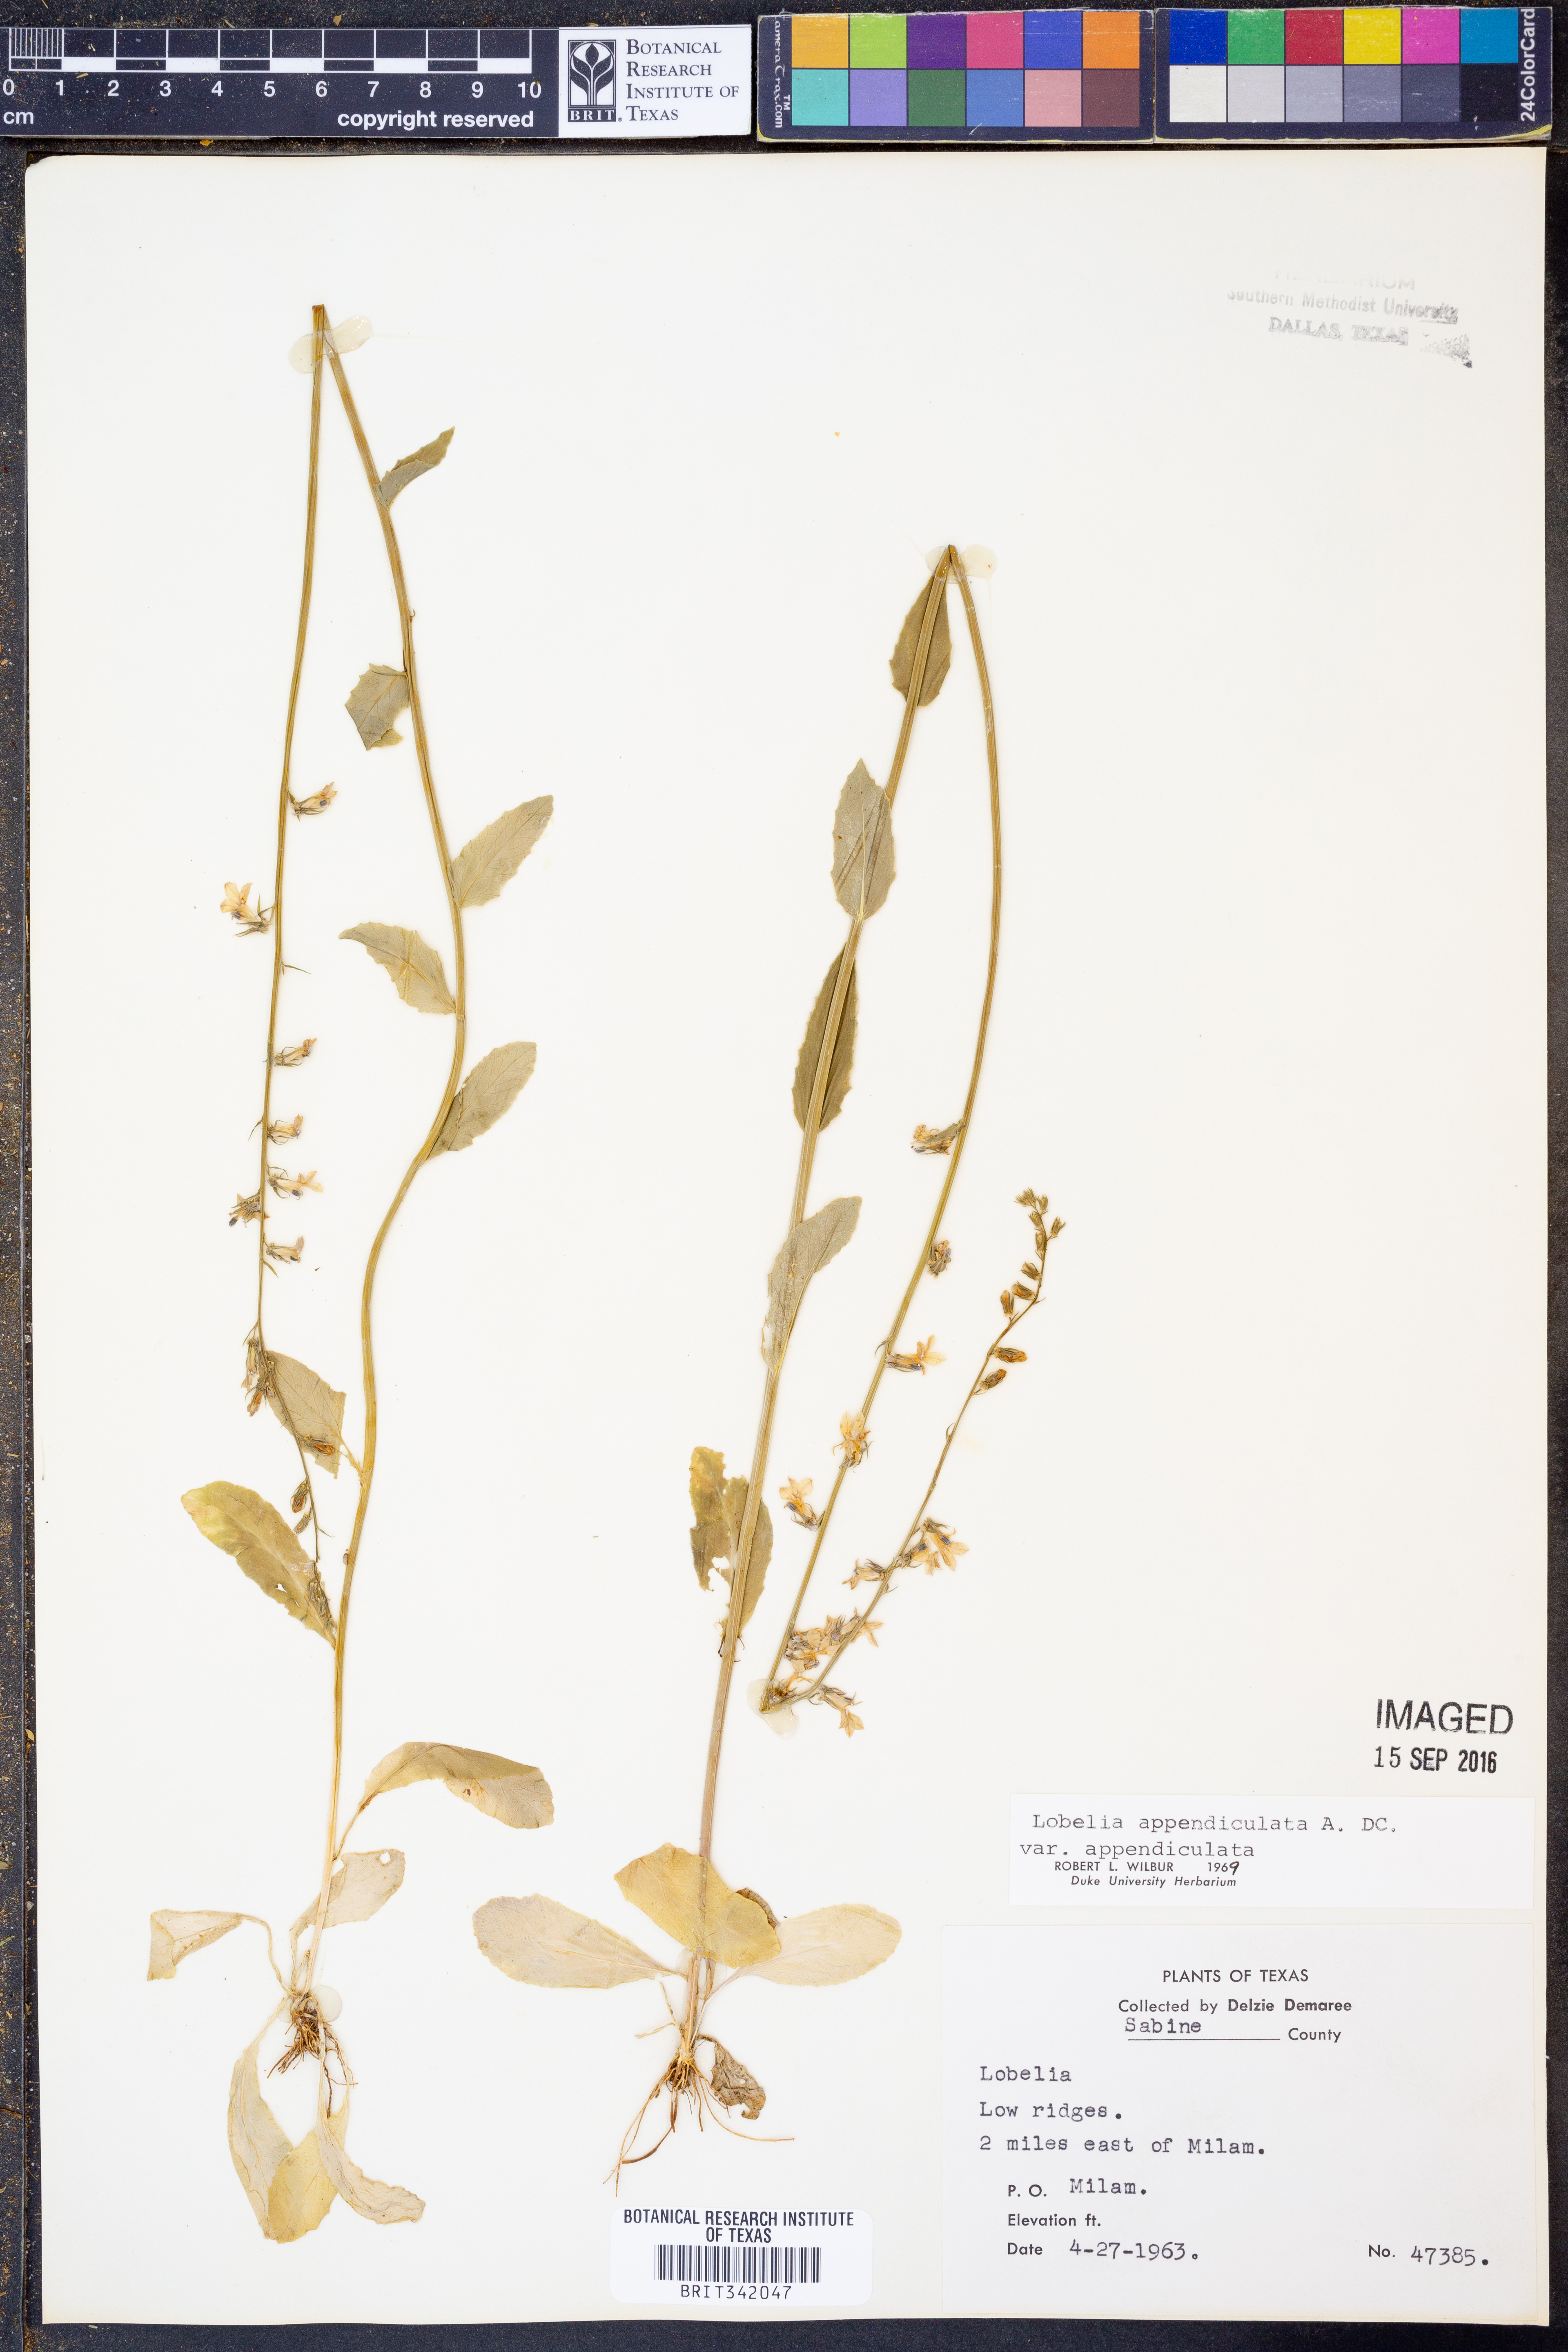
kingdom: Plantae
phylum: Tracheophyta
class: Magnoliopsida
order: Asterales
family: Campanulaceae
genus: Lobelia
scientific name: Lobelia appendiculata
